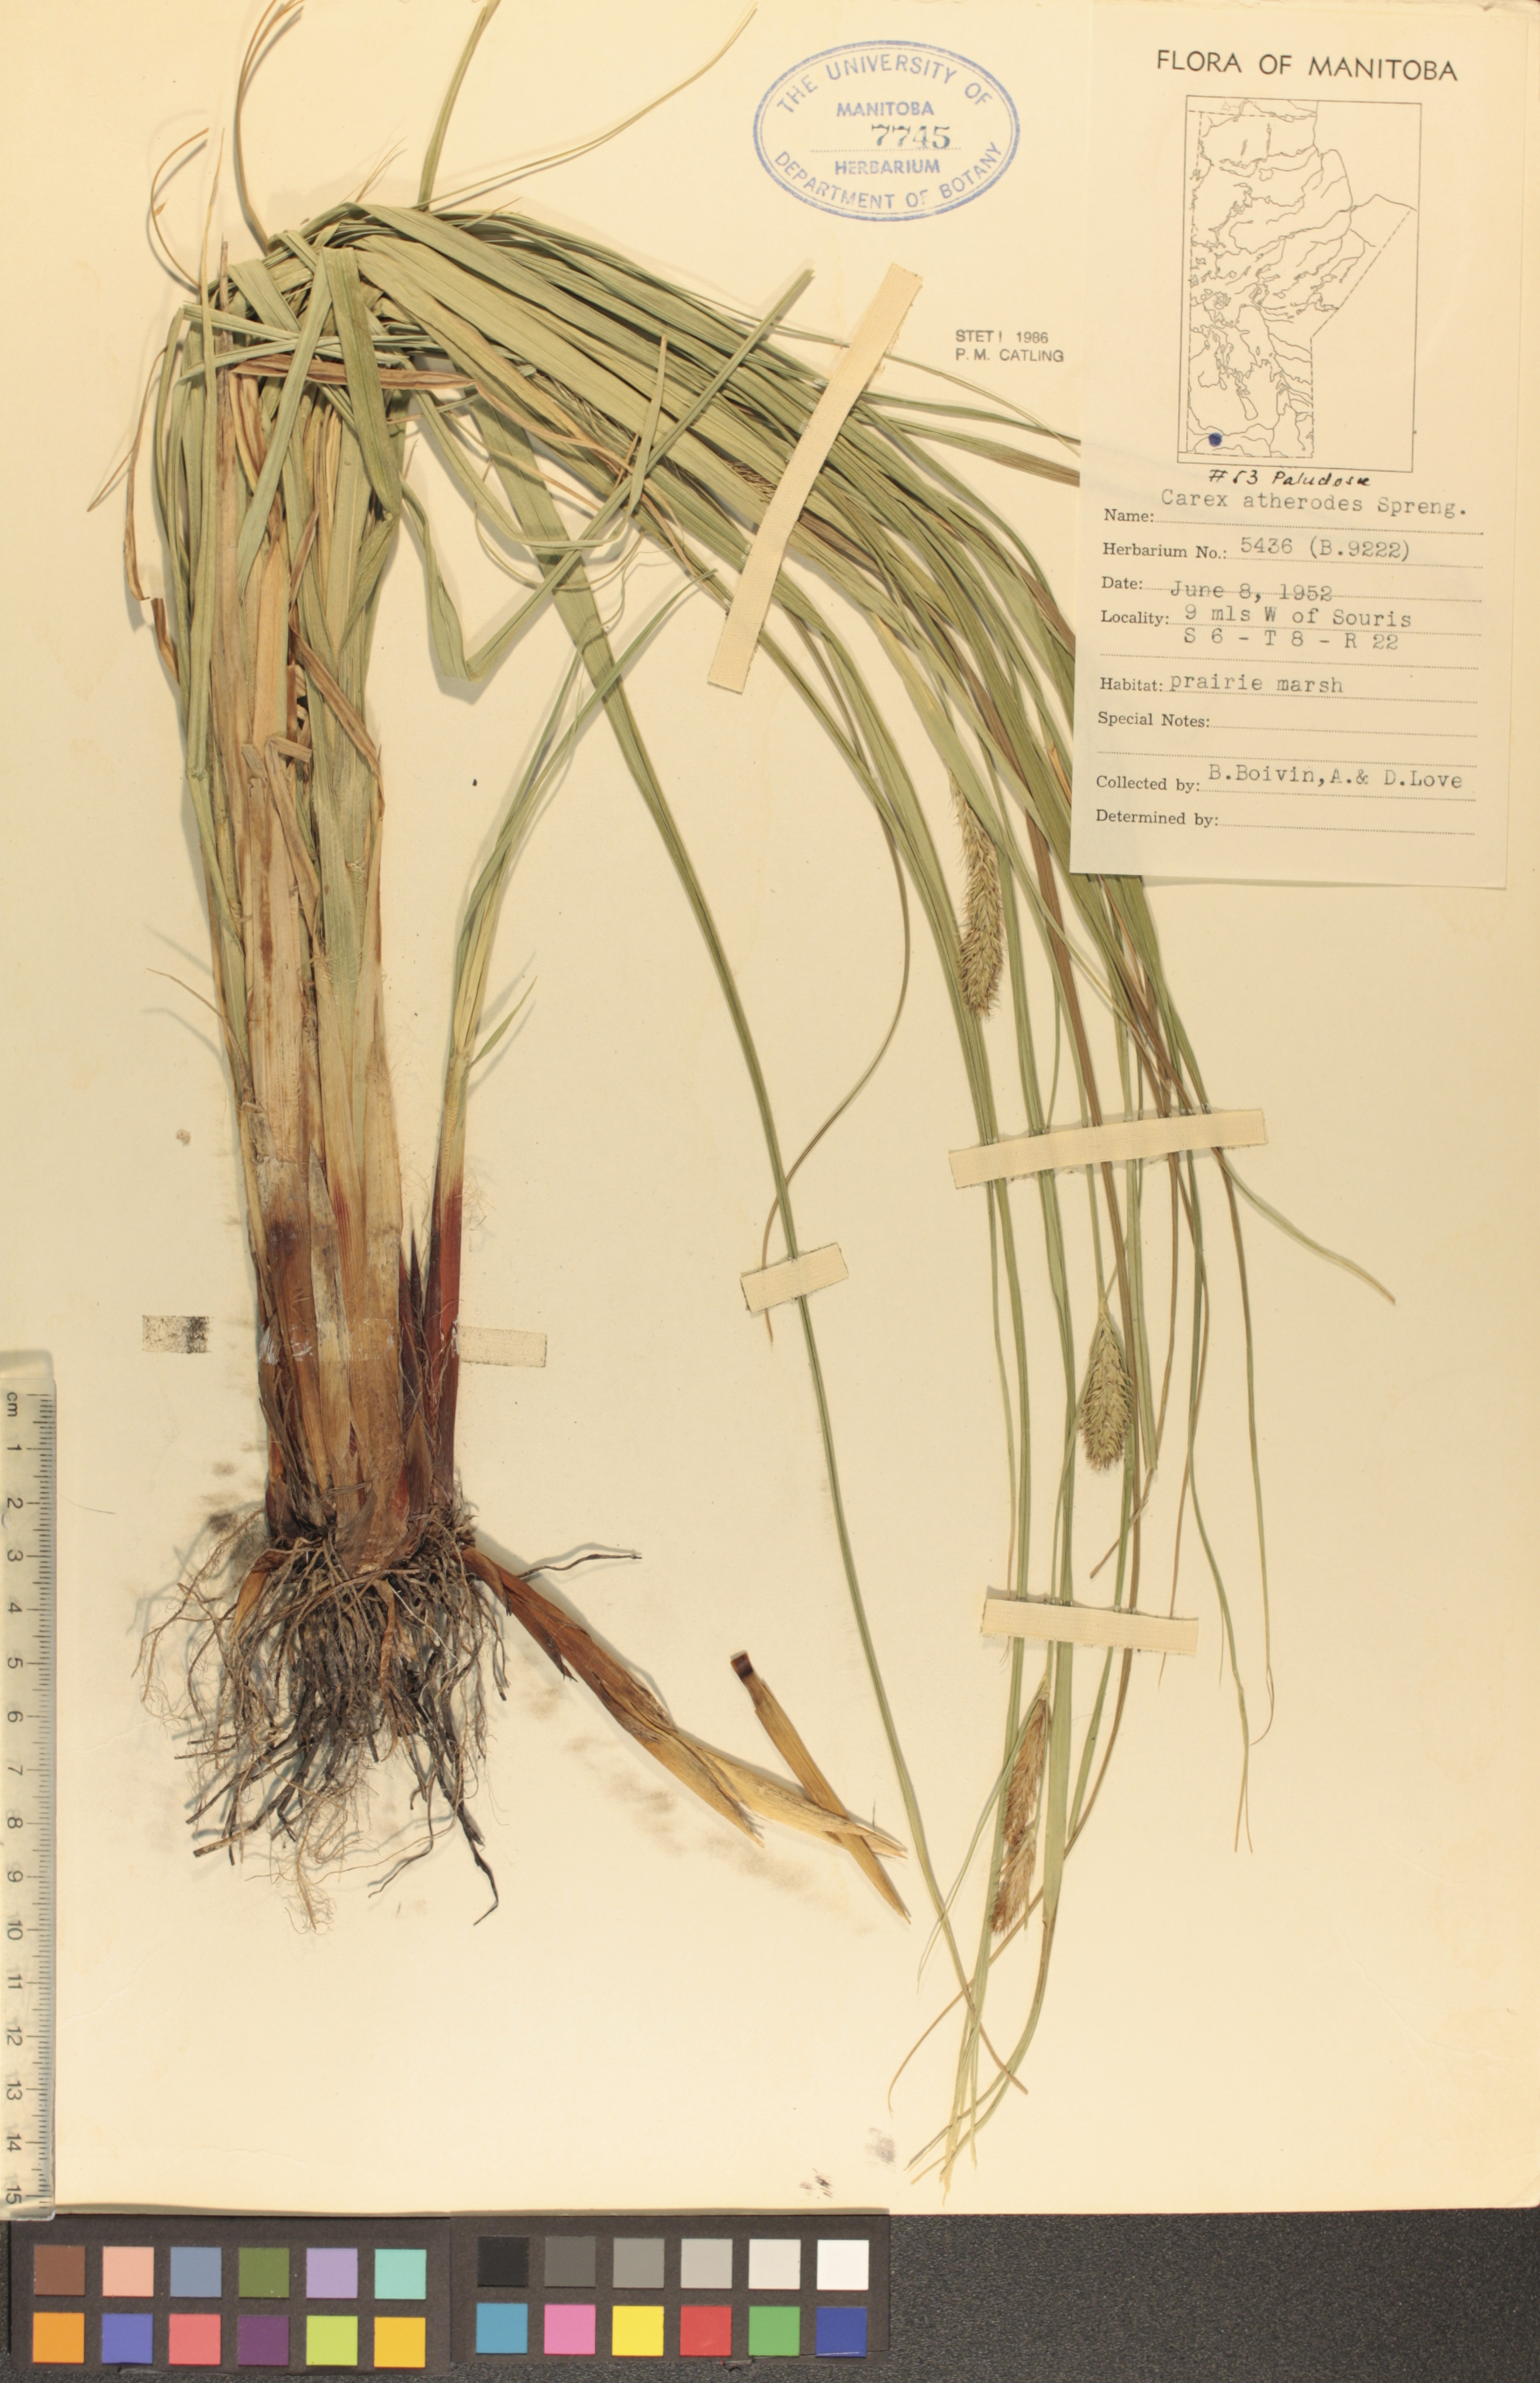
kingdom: Plantae
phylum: Tracheophyta
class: Liliopsida
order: Poales
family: Cyperaceae
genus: Carex
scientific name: Carex atherodes
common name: Wheat sedge
